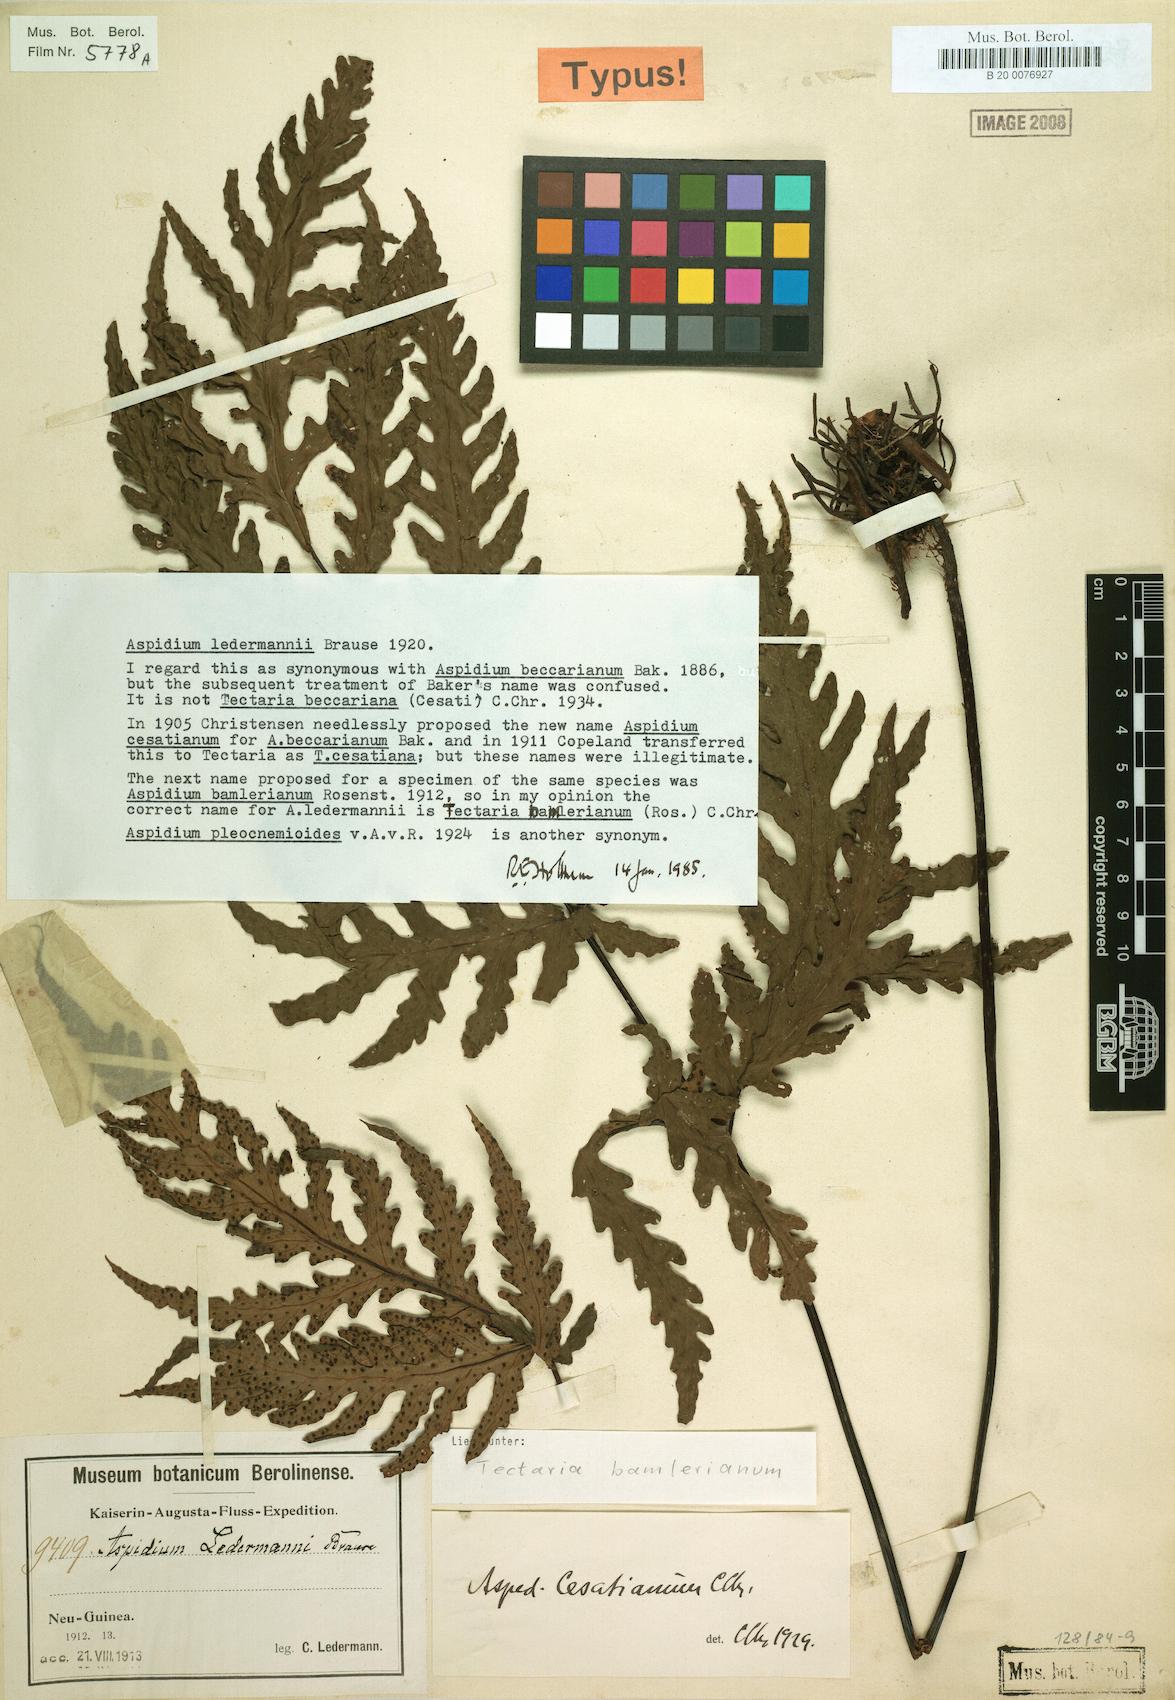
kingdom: Plantae
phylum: Tracheophyta
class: Polypodiopsida
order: Polypodiales
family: Tectariaceae
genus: Tectaria
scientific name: Tectaria bamleriana
